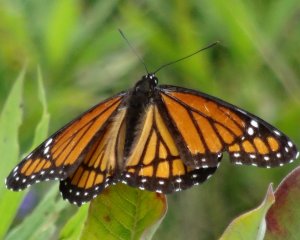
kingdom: Animalia
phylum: Arthropoda
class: Insecta
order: Lepidoptera
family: Nymphalidae
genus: Limenitis
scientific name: Limenitis archippus
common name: Viceroy
